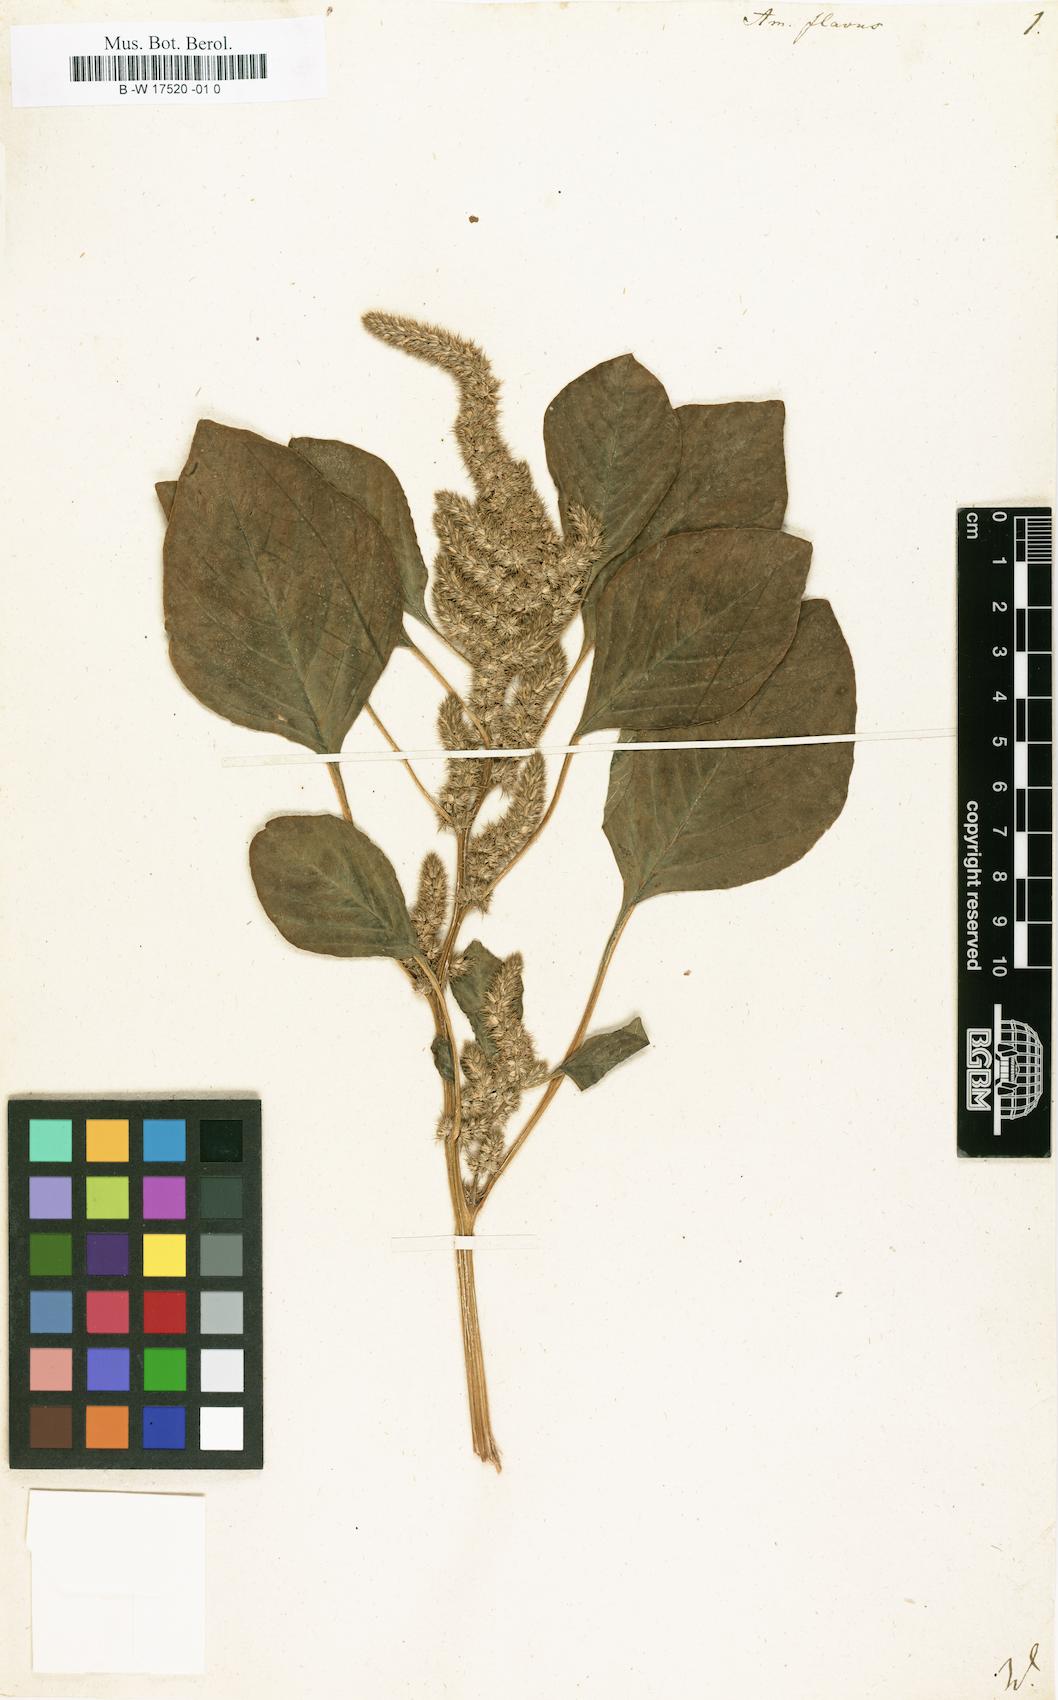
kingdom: Plantae
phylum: Tracheophyta
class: Magnoliopsida
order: Caryophyllales
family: Amaranthaceae
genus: Amaranthus
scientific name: Amaranthus cruentus
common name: Purple amaranth
